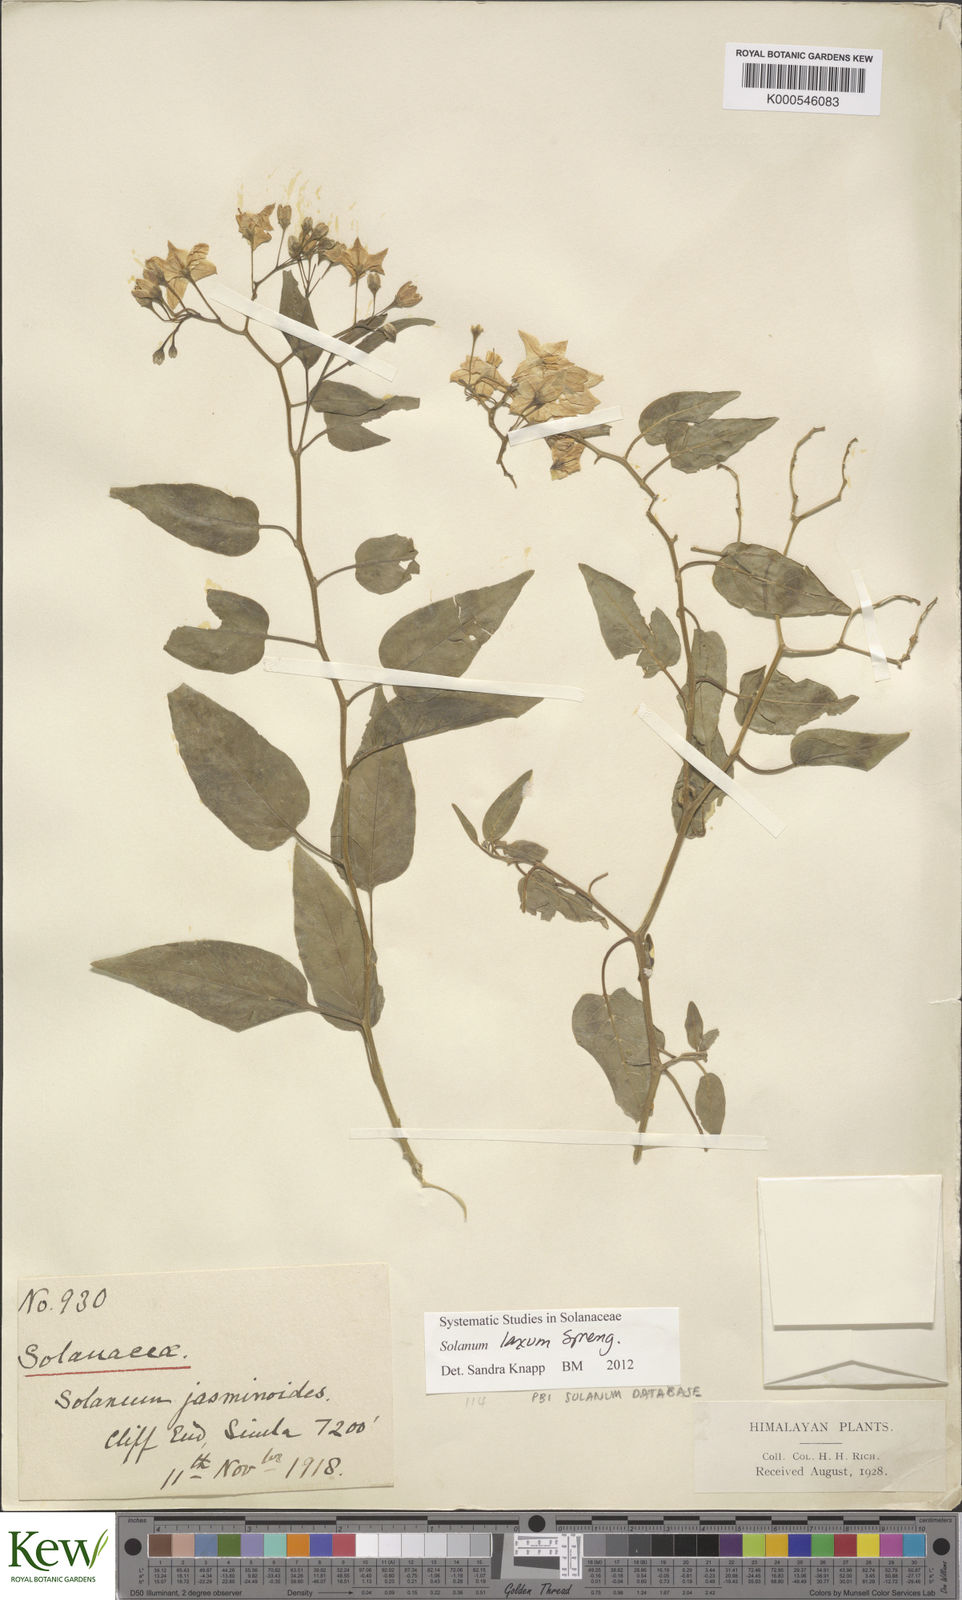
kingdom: Plantae
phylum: Tracheophyta
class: Magnoliopsida
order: Solanales
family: Solanaceae
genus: Solanum
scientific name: Solanum laxum
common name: Nightshade
